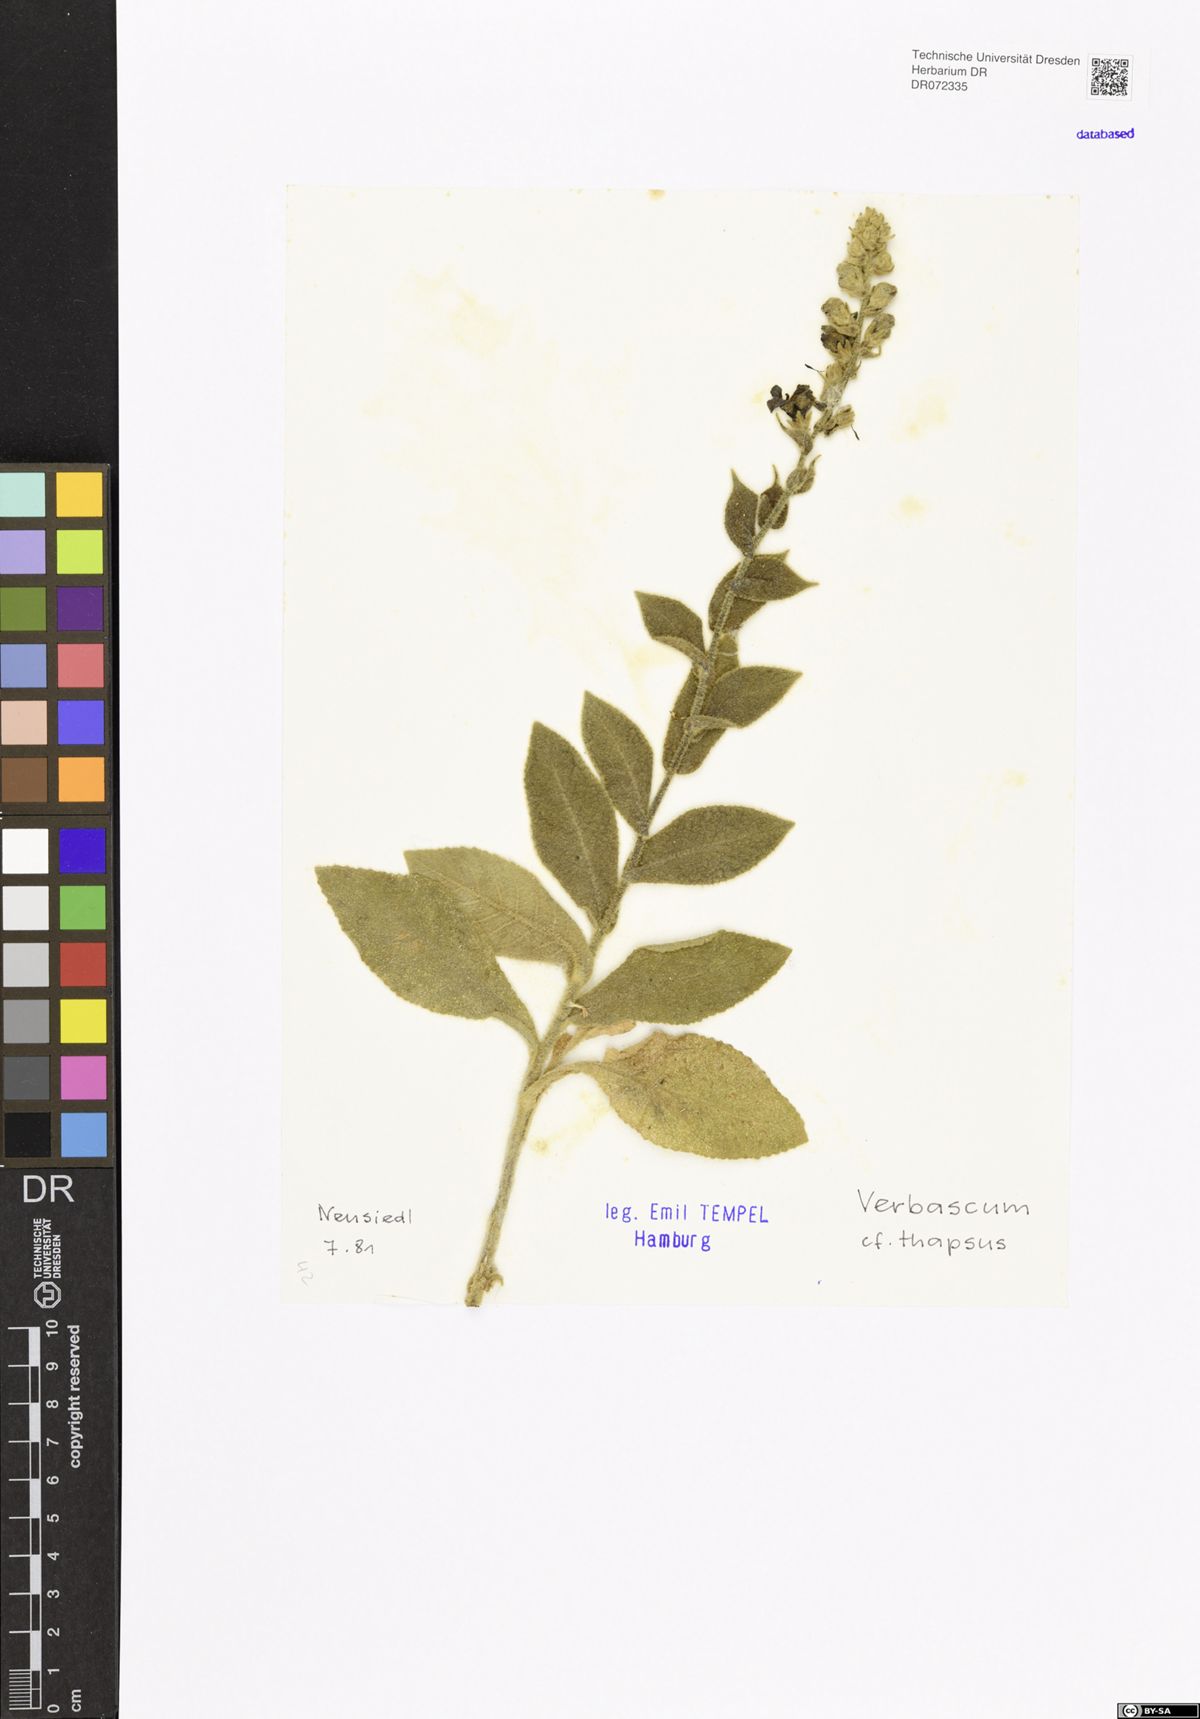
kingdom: Plantae
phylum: Tracheophyta
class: Magnoliopsida
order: Lamiales
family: Scrophulariaceae
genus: Verbascum
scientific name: Verbascum thapsus
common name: Common mullein
